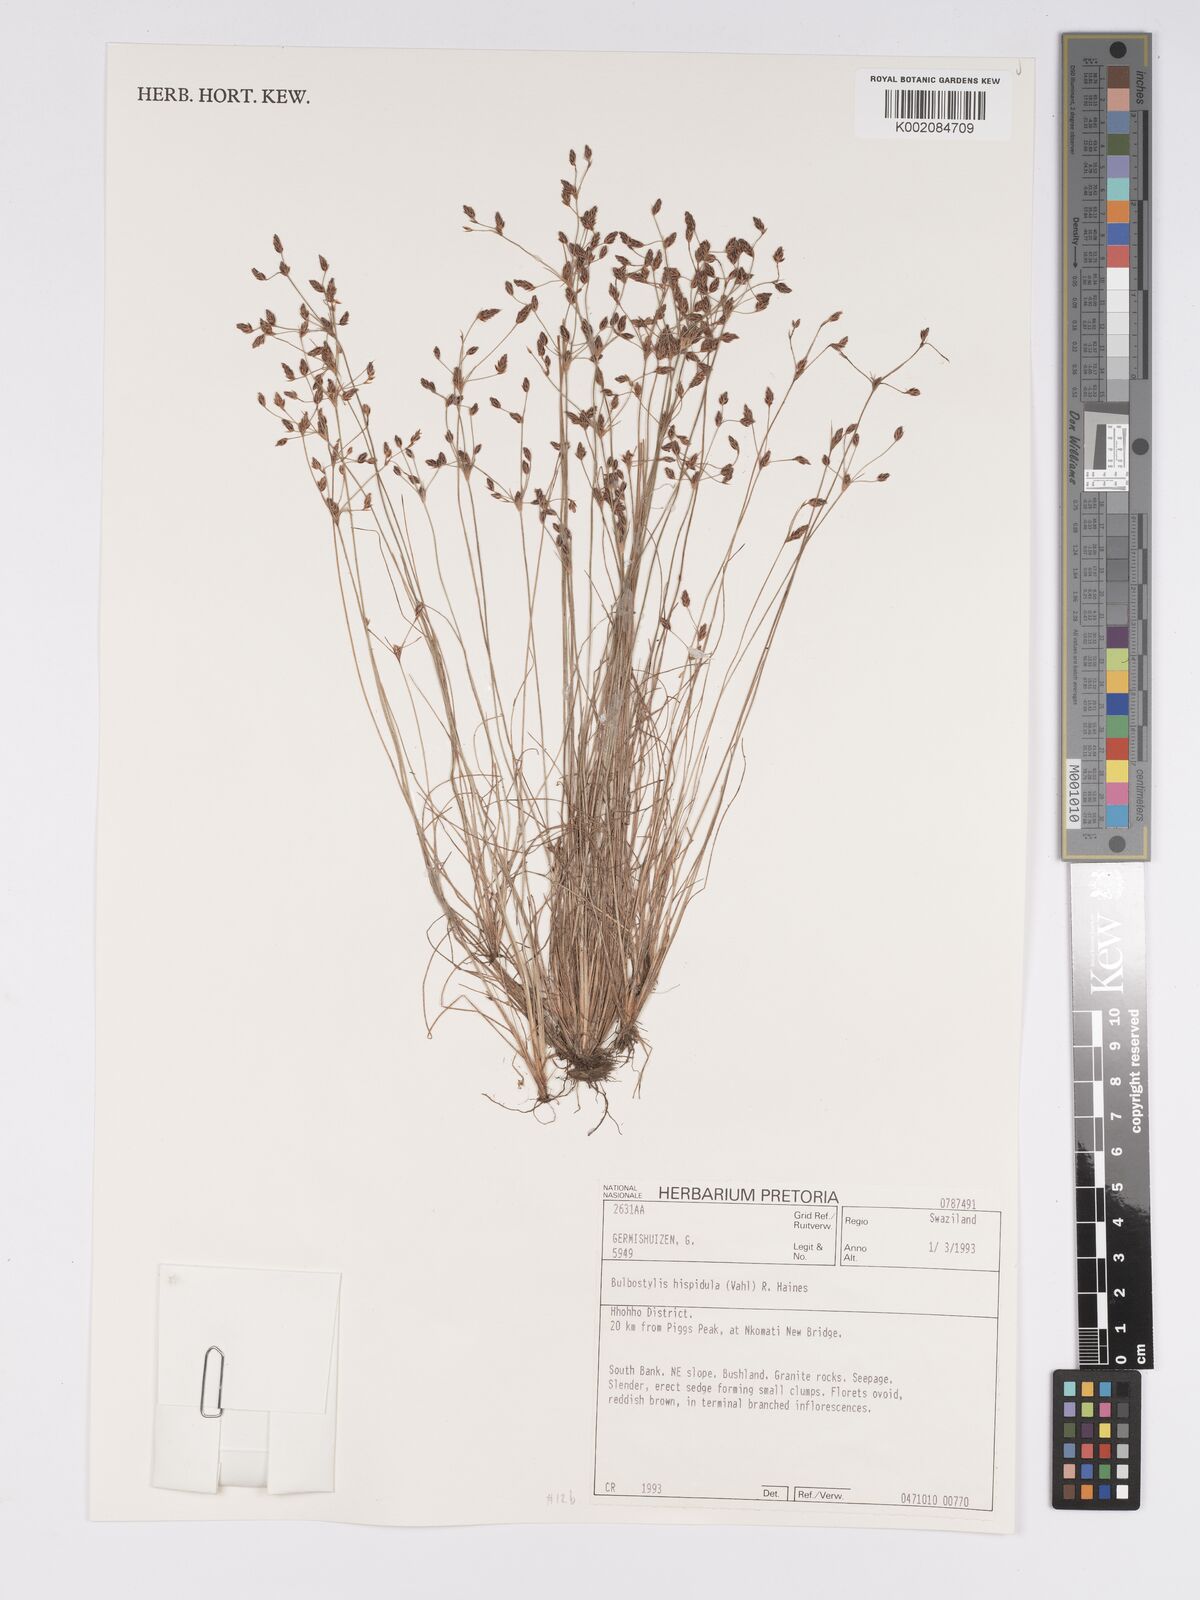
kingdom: Plantae
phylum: Tracheophyta
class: Liliopsida
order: Poales
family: Cyperaceae
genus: Bulbostylis
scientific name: Bulbostylis hispidula
